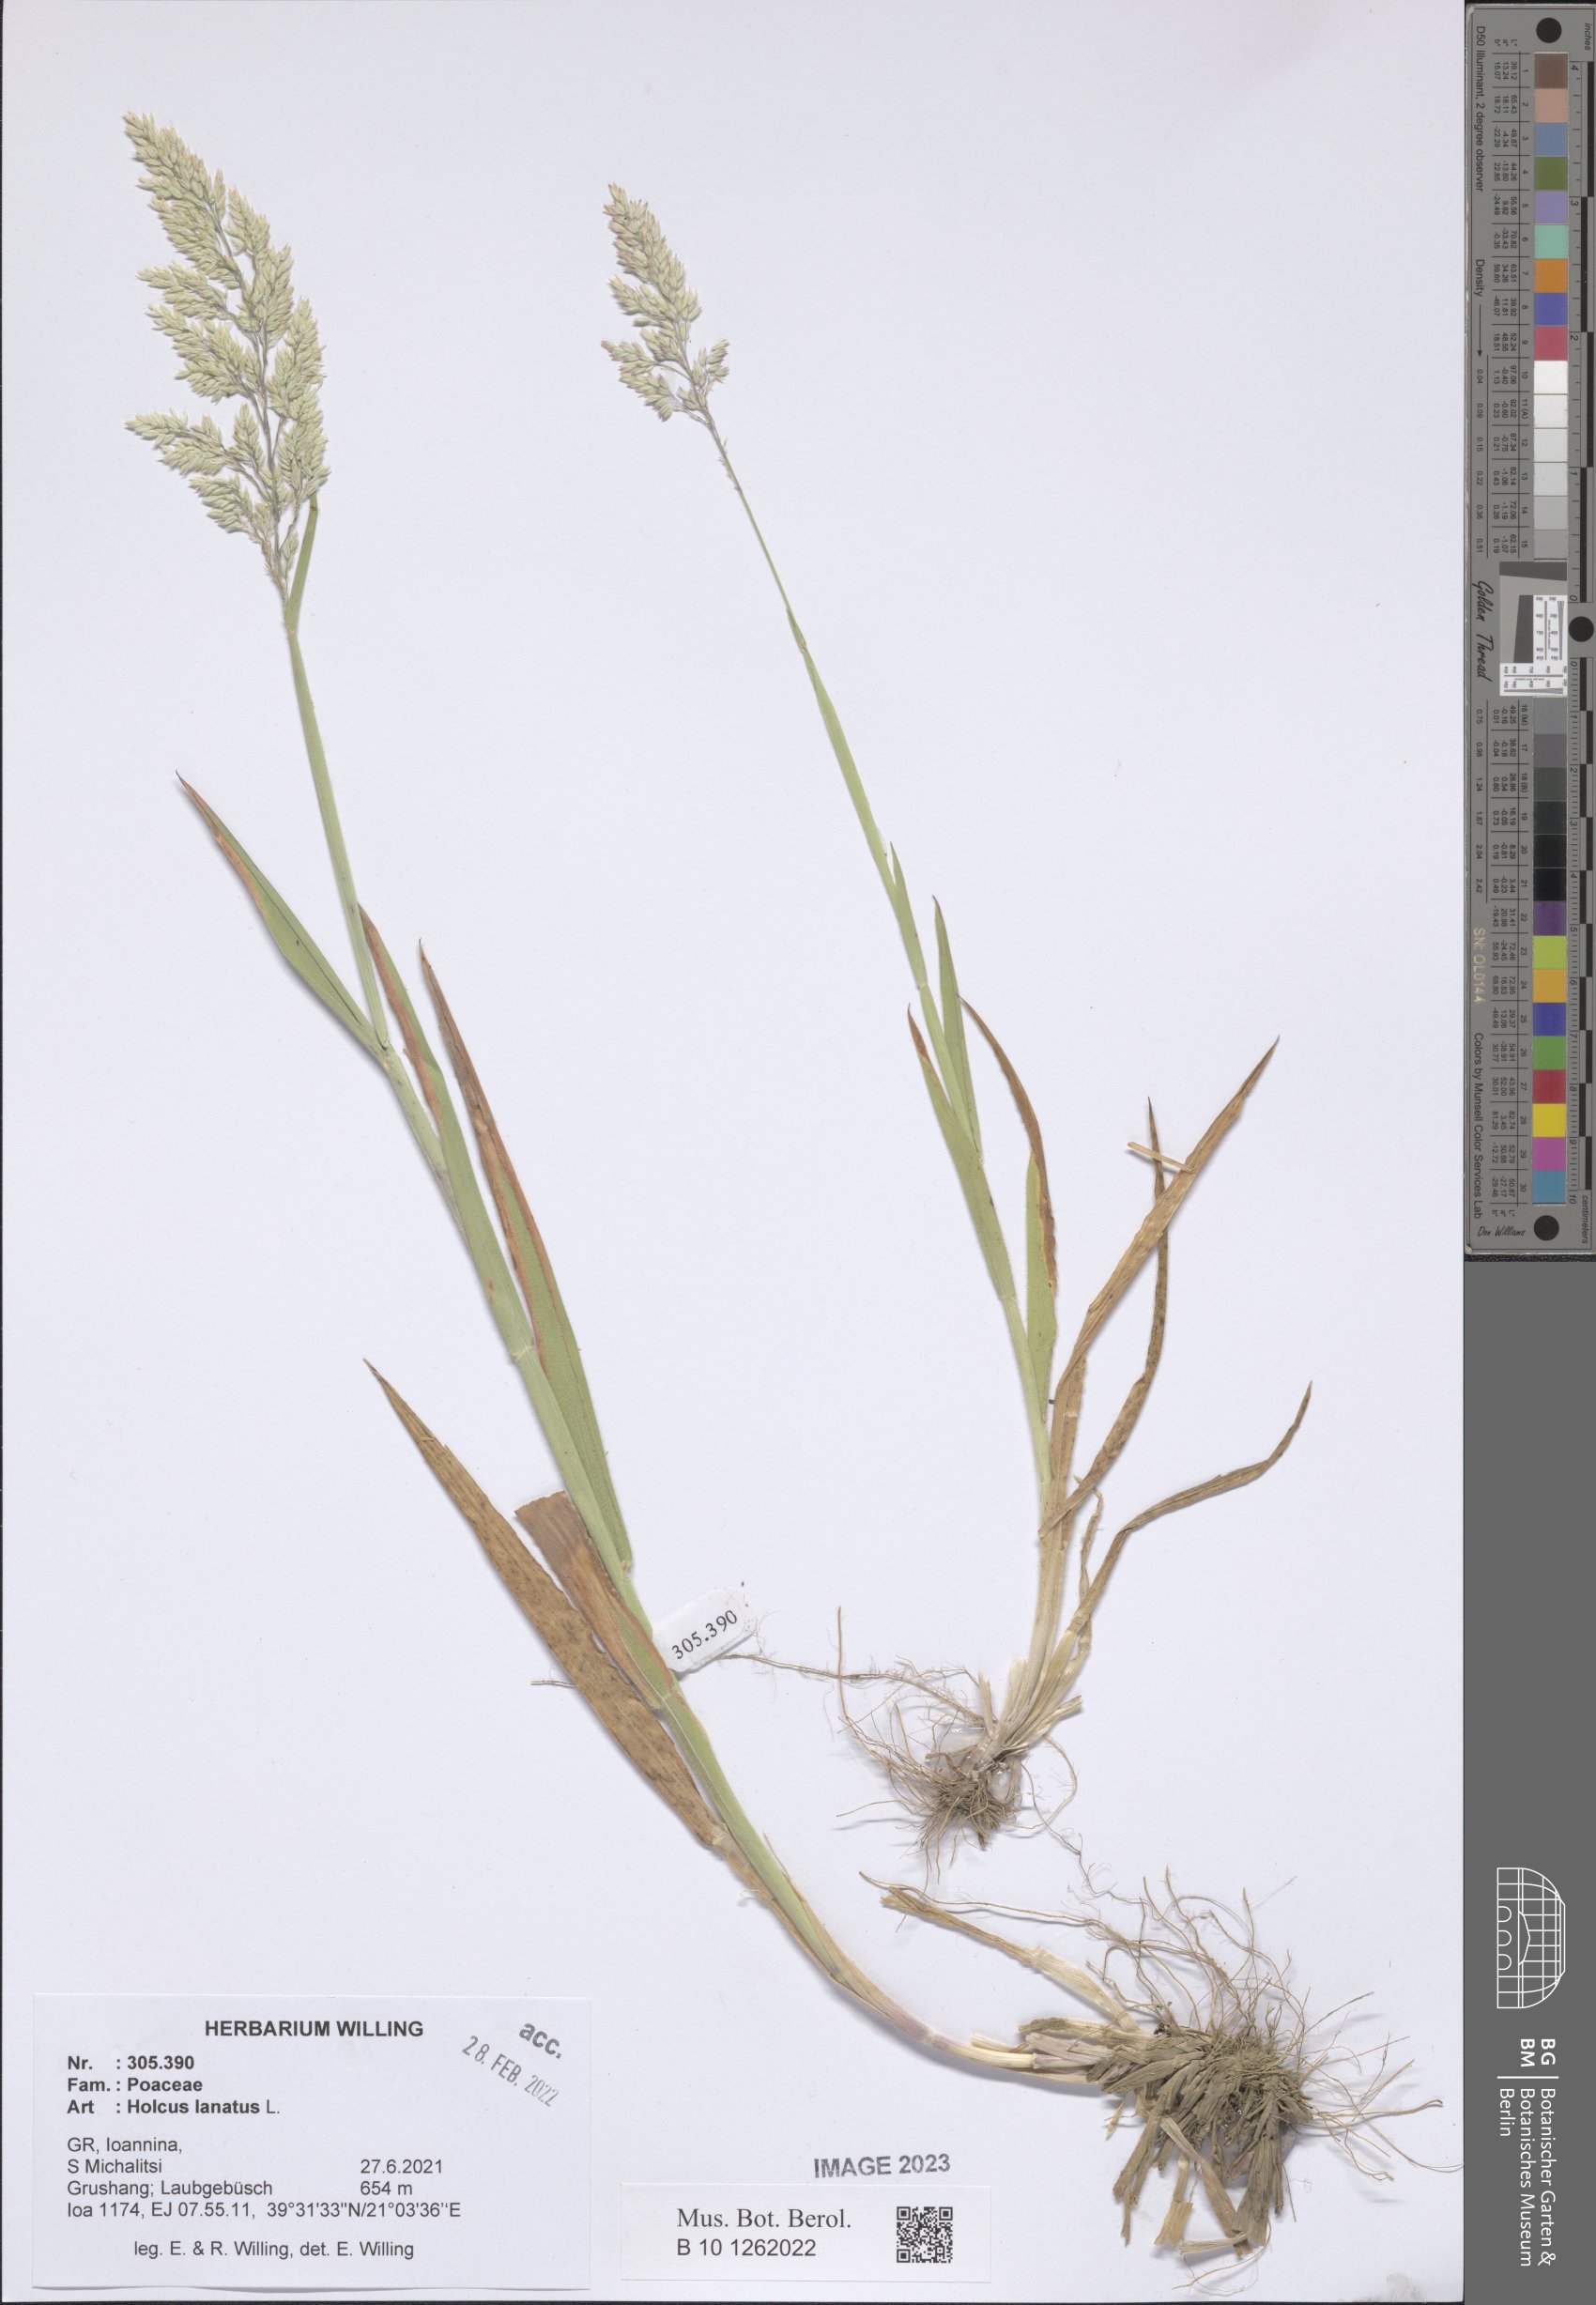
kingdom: Plantae
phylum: Tracheophyta
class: Liliopsida
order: Poales
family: Poaceae
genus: Holcus
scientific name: Holcus lanatus
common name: Yorkshire-fog
